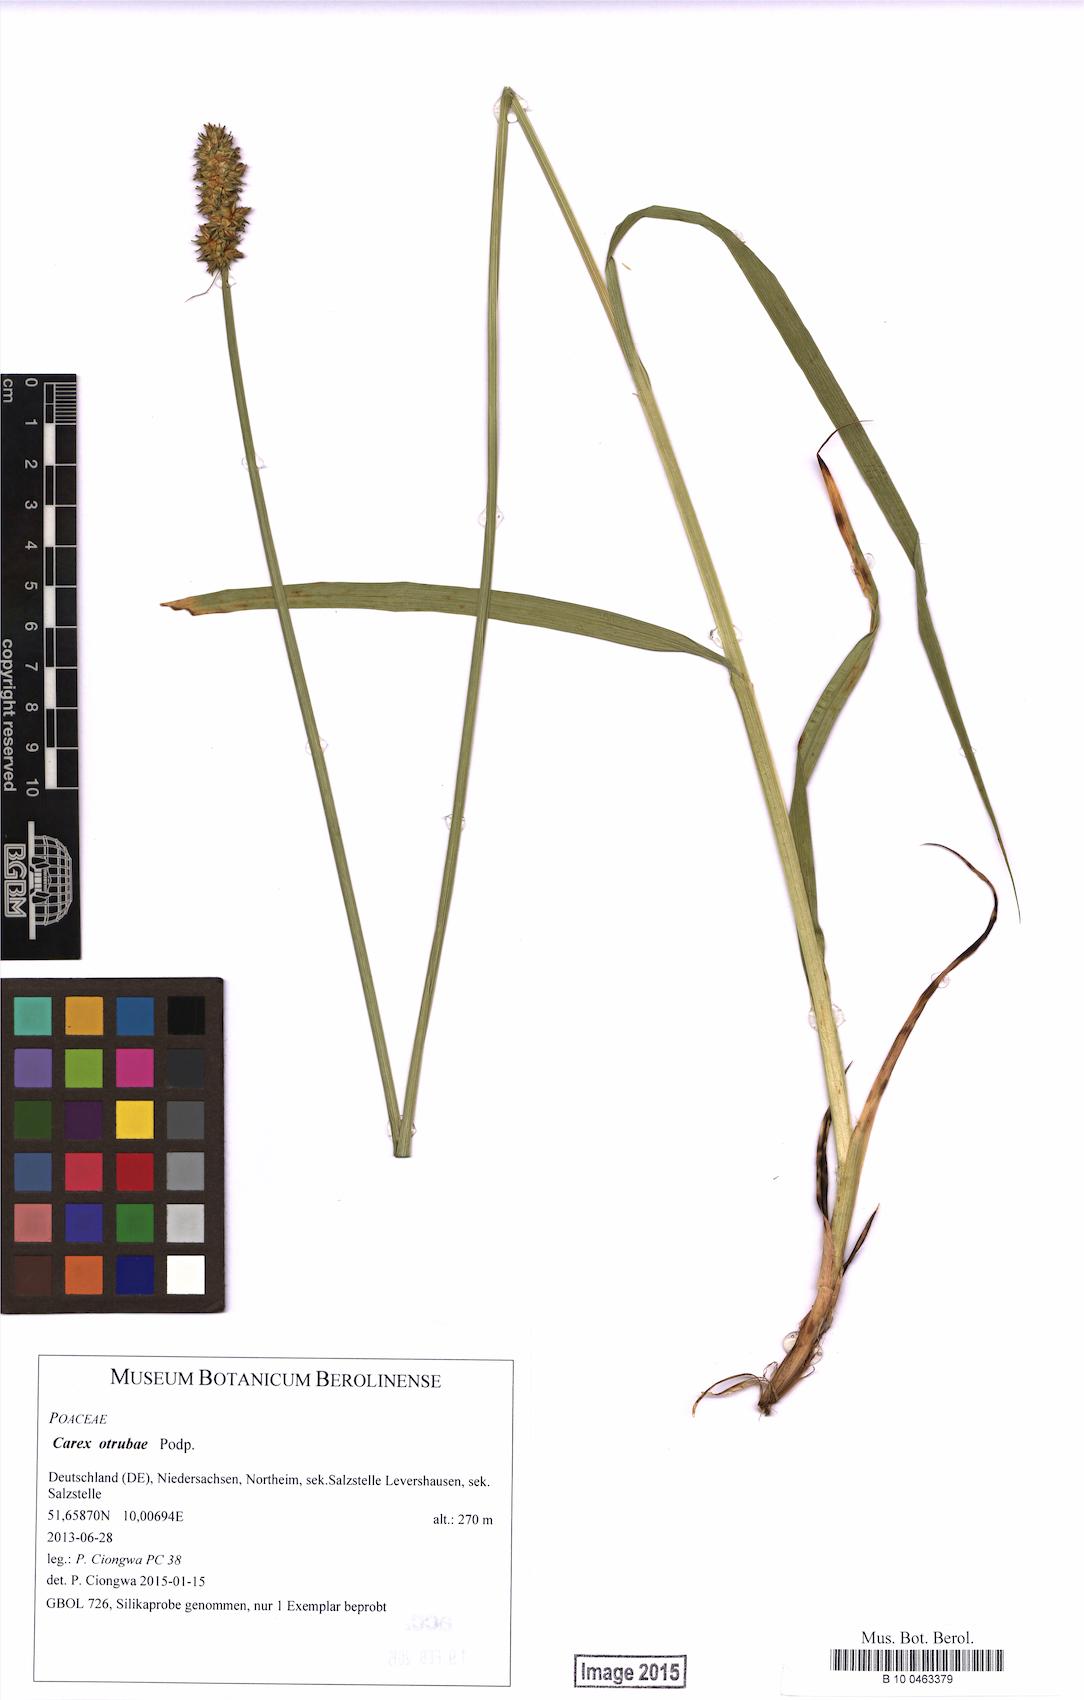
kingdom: Plantae
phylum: Tracheophyta
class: Liliopsida
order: Poales
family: Cyperaceae
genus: Carex
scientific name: Carex otrubae
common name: False fox-sedge
